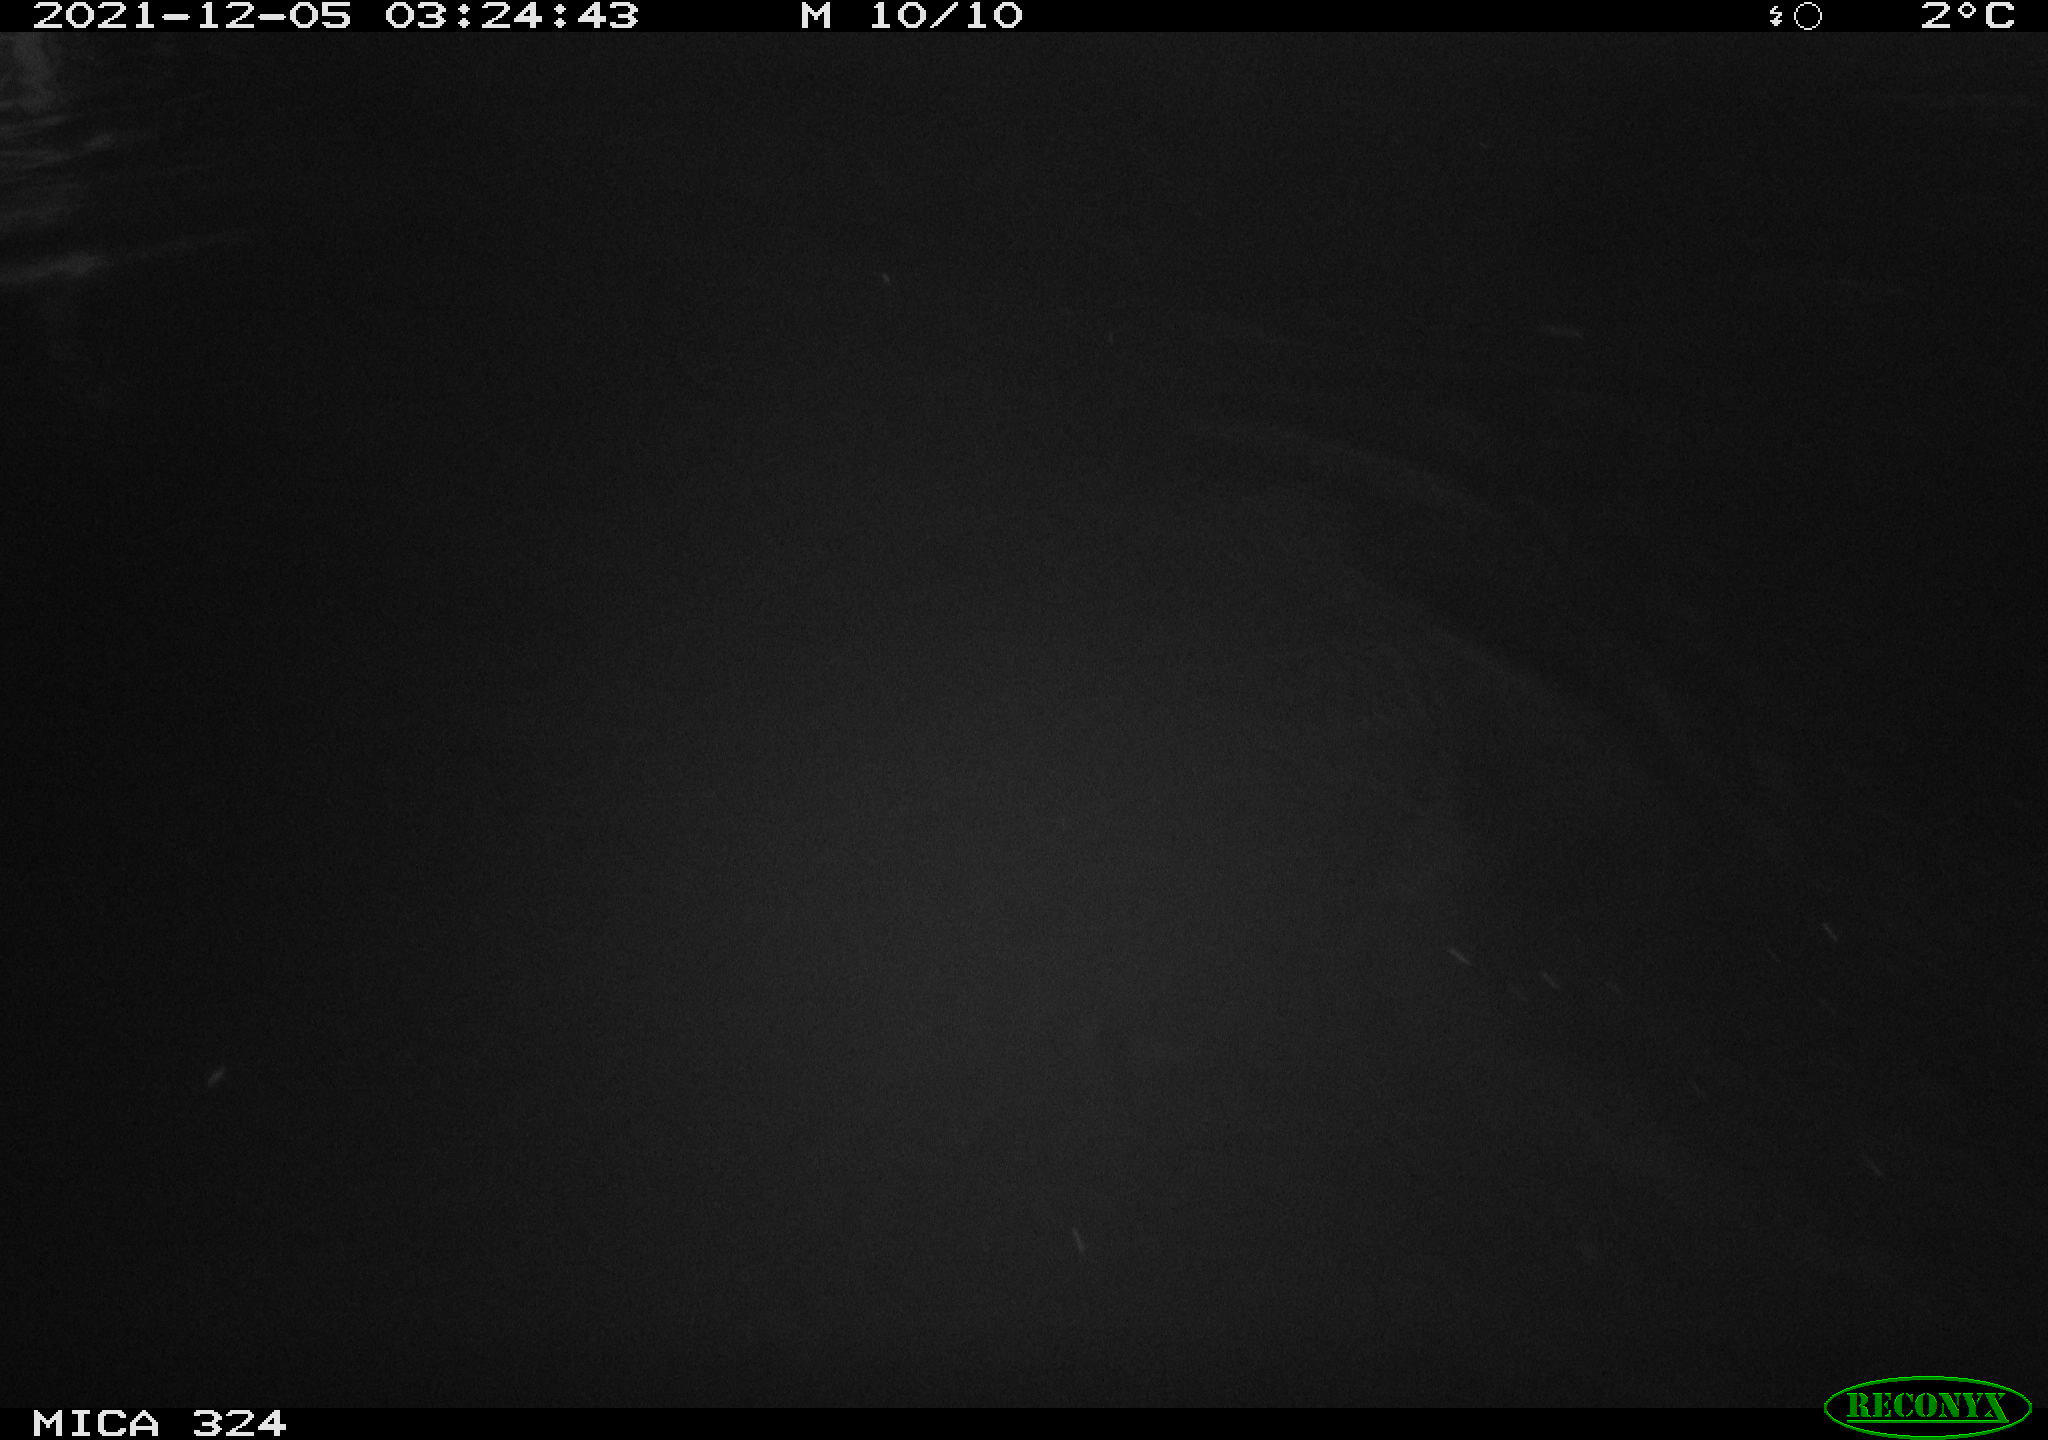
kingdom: Animalia
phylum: Chordata
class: Aves
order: Anseriformes
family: Anatidae
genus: Anas
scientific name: Anas platyrhynchos
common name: Mallard
